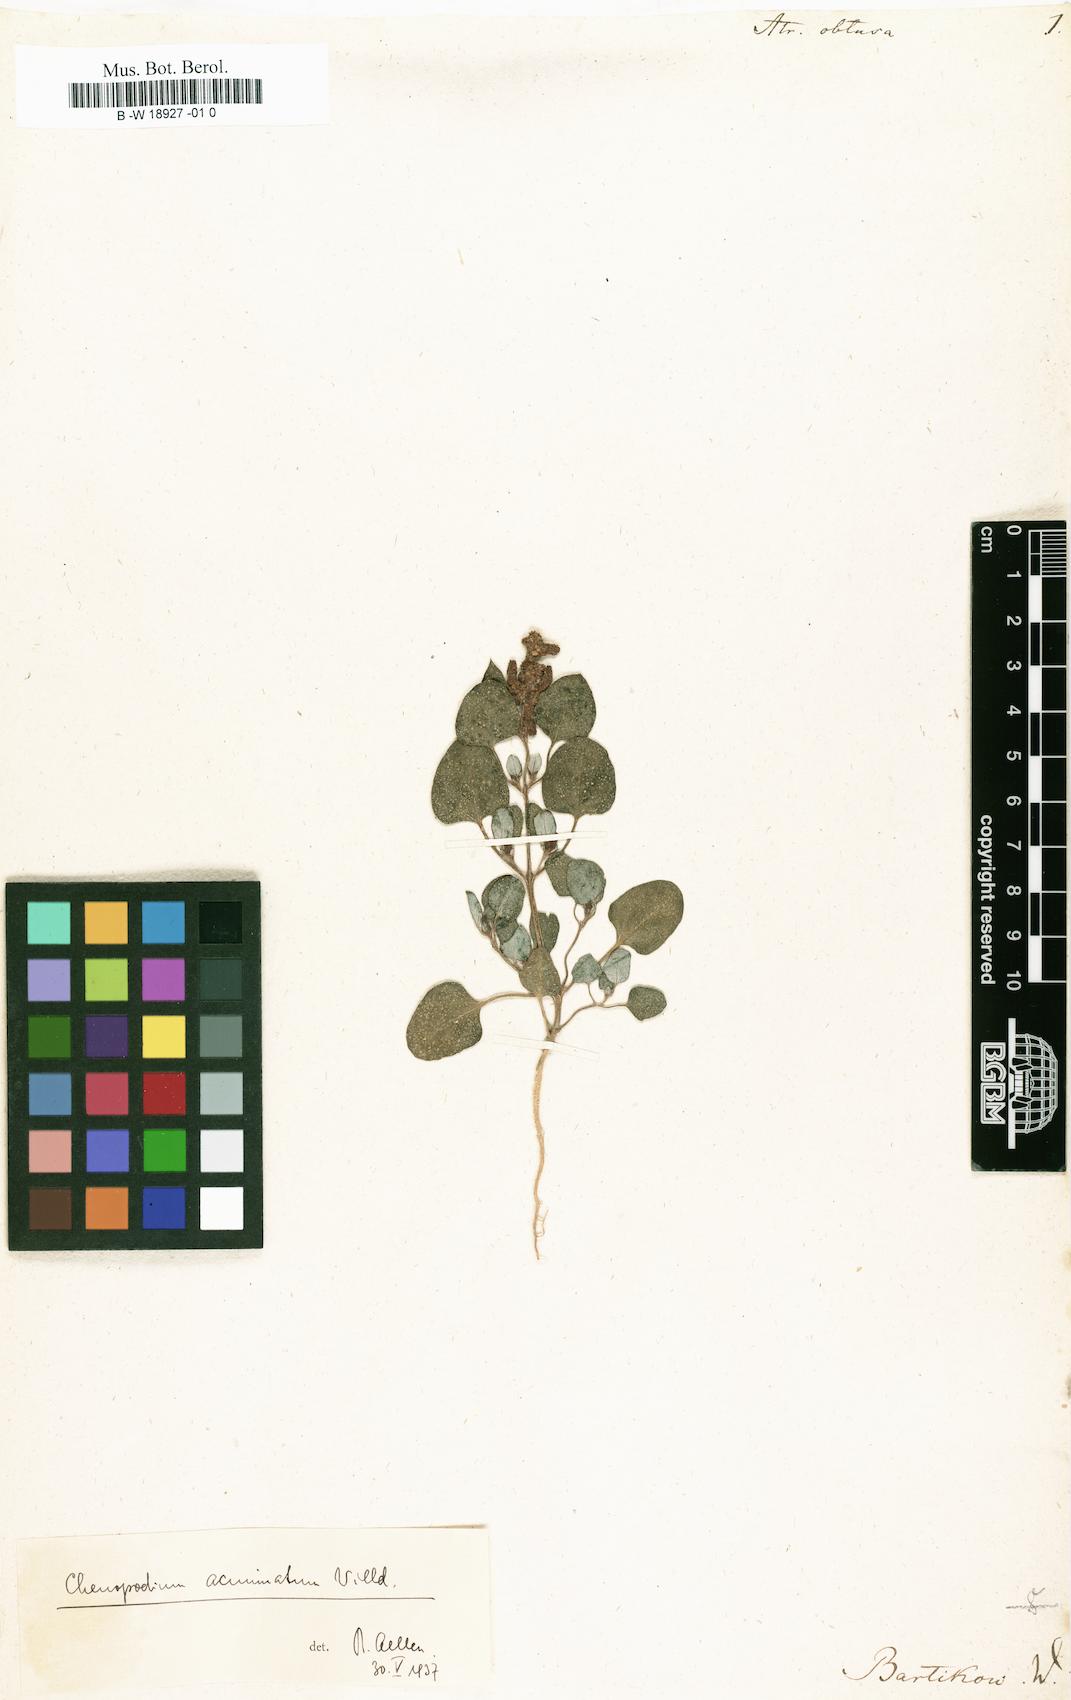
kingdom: Plantae
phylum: Tracheophyta
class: Magnoliopsida
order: Caryophyllales
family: Amaranthaceae
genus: Atriplex
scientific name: Atriplex obtusa
